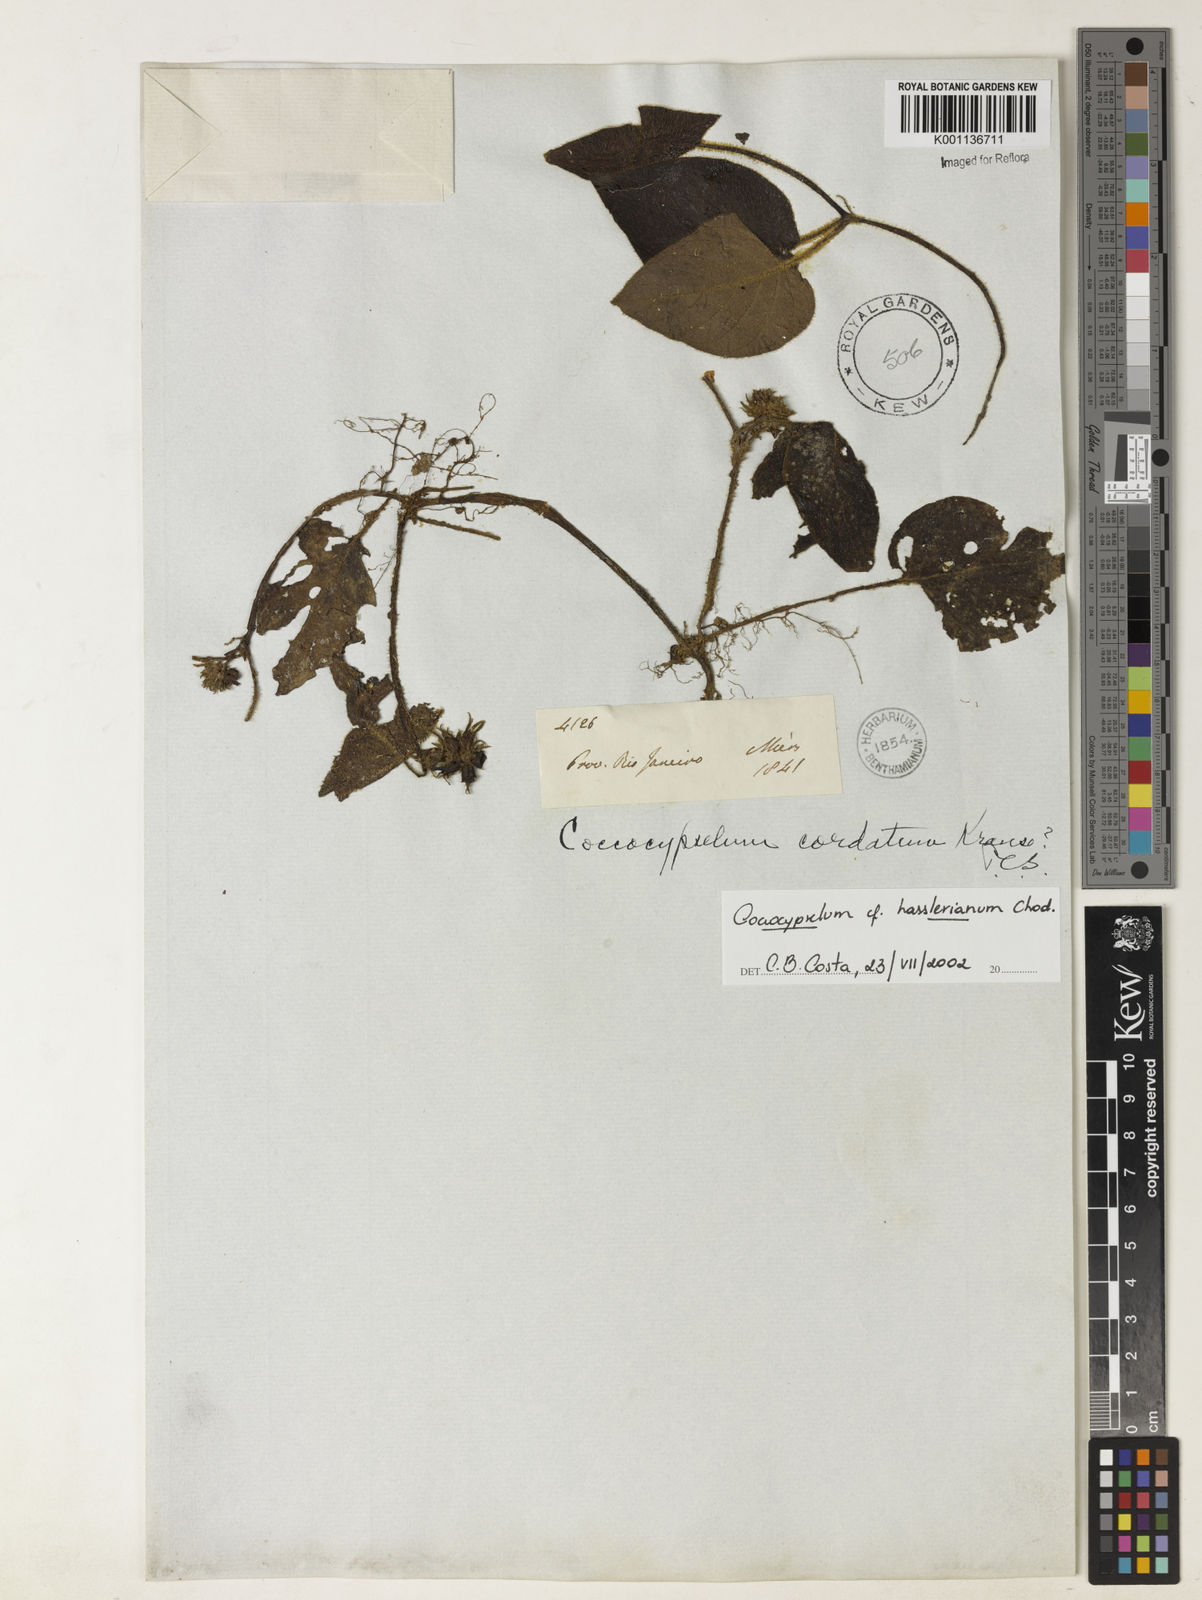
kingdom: Plantae
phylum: Tracheophyta
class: Magnoliopsida
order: Gentianales
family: Rubiaceae
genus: Coccocypselum
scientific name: Coccocypselum hasslerianum
